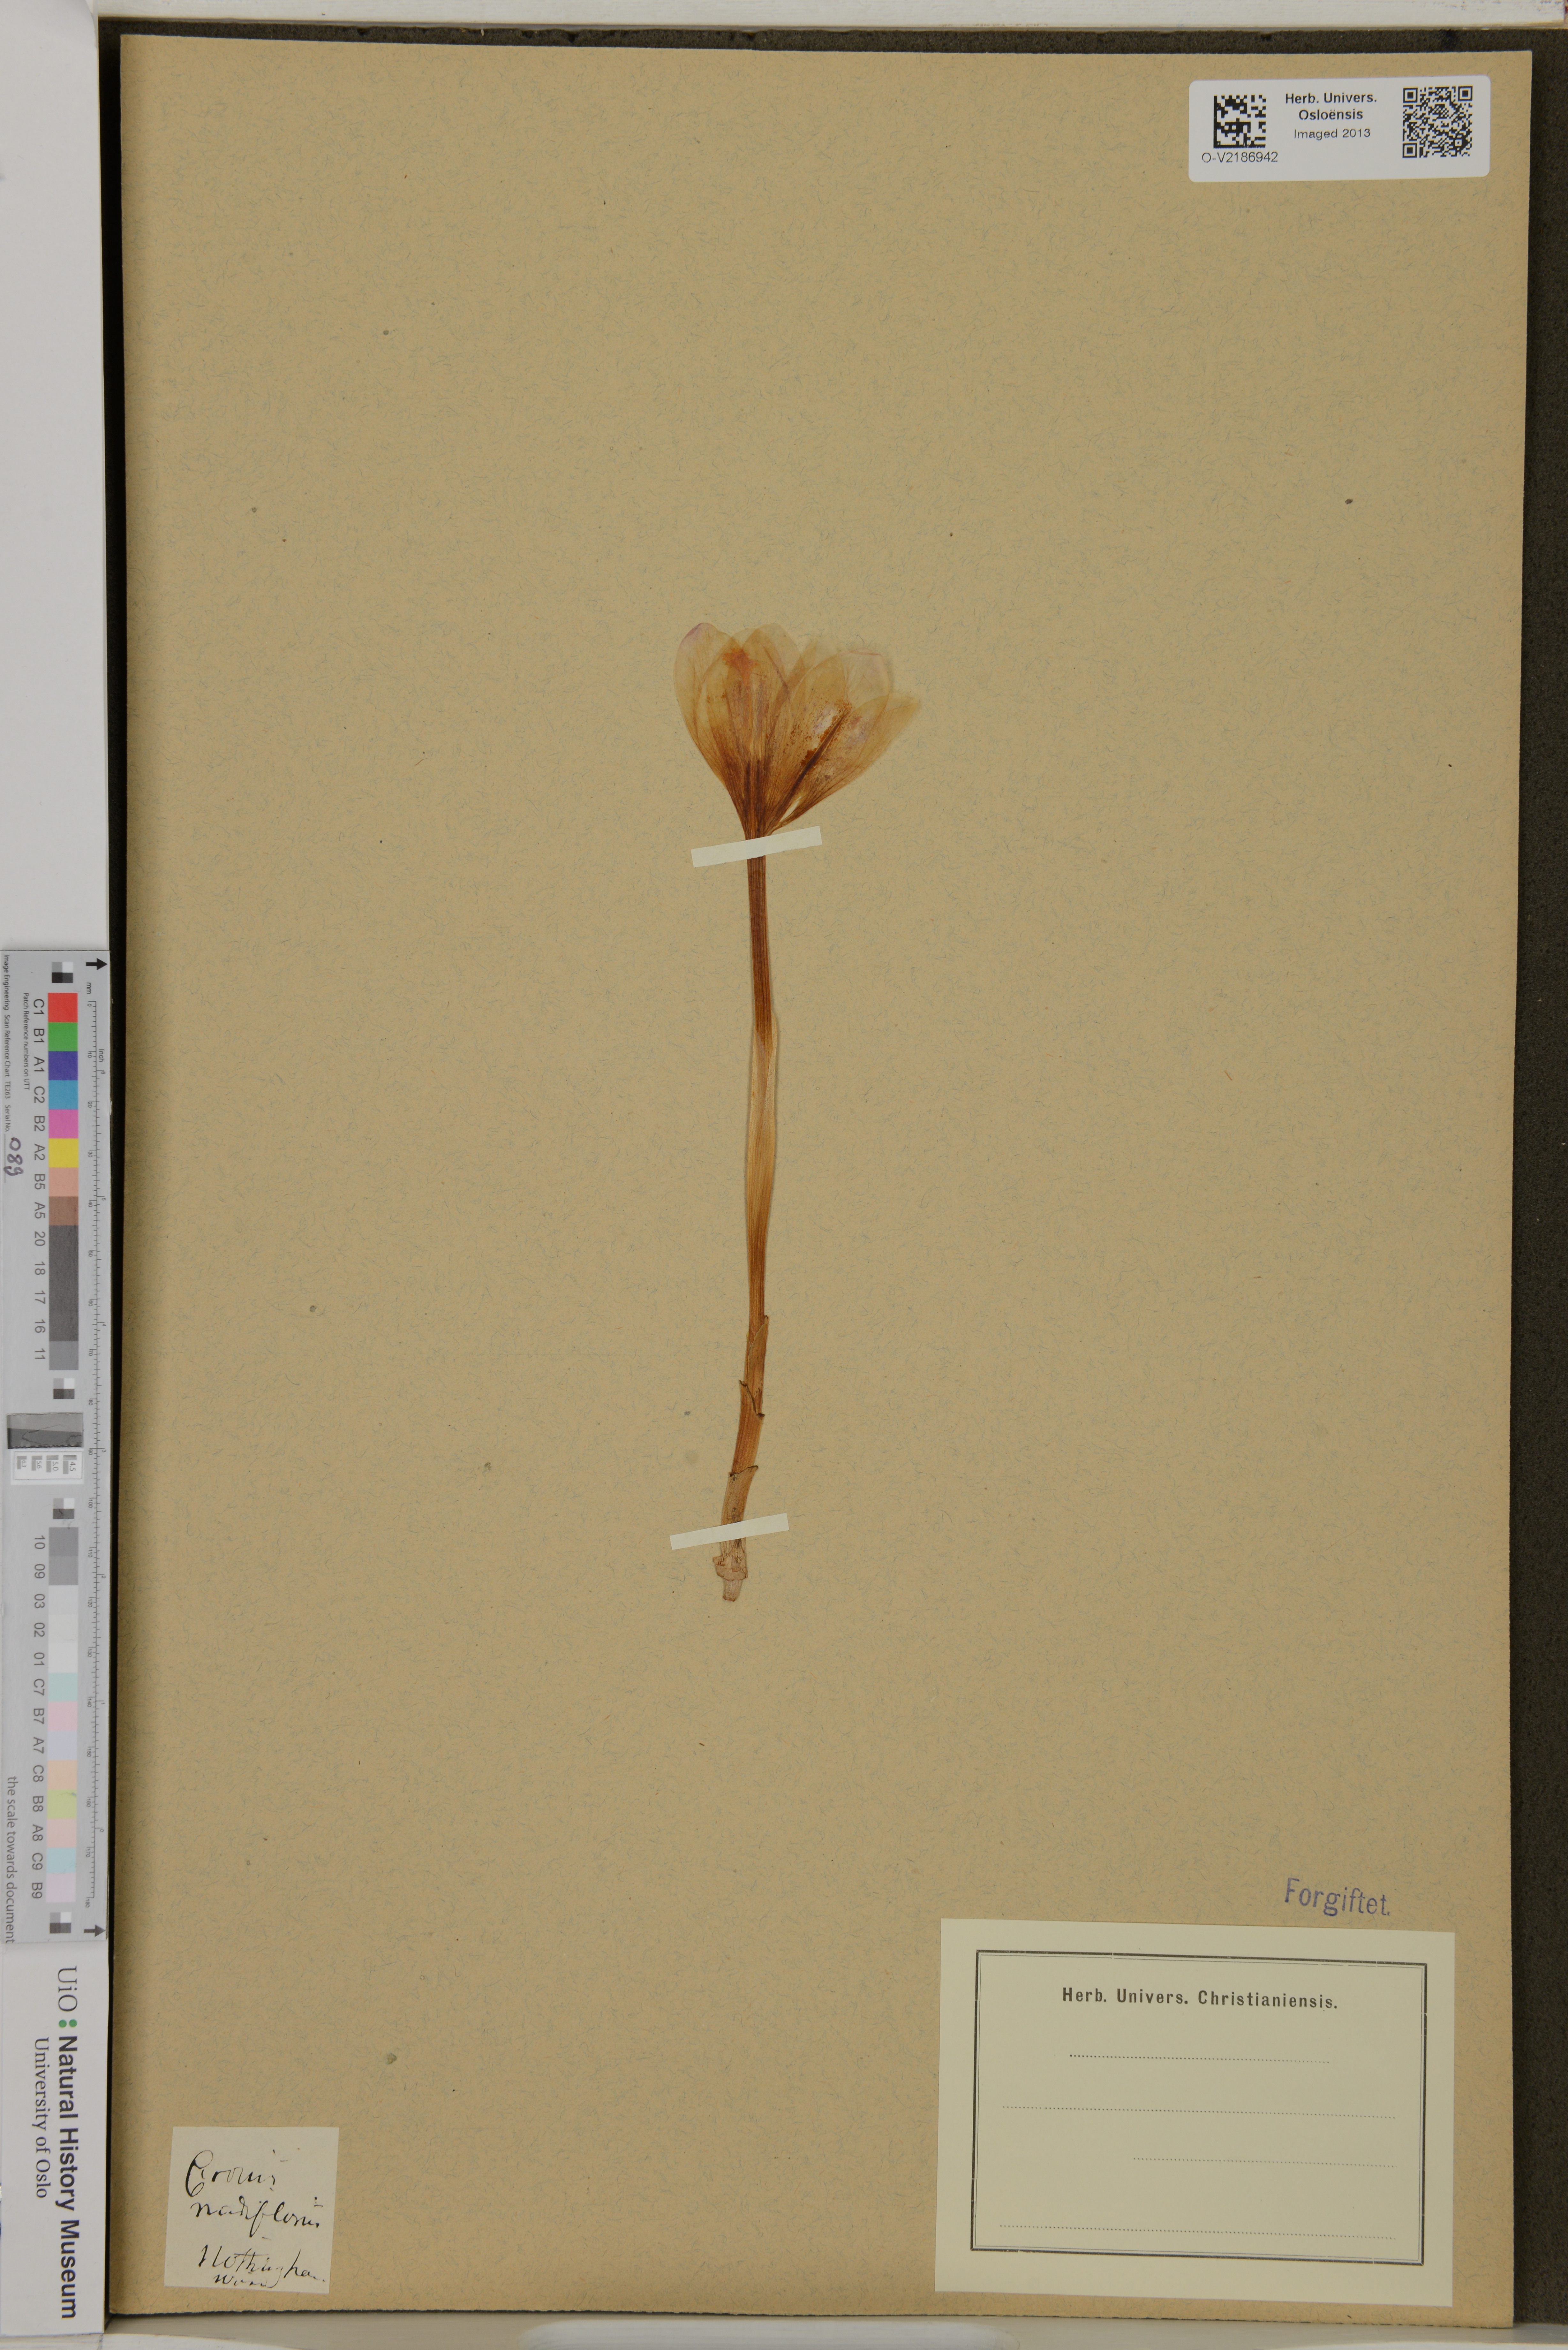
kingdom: Plantae
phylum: Tracheophyta
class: Liliopsida
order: Asparagales
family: Iridaceae
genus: Crocus
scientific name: Crocus nudiflorus
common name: Autumn crocus
